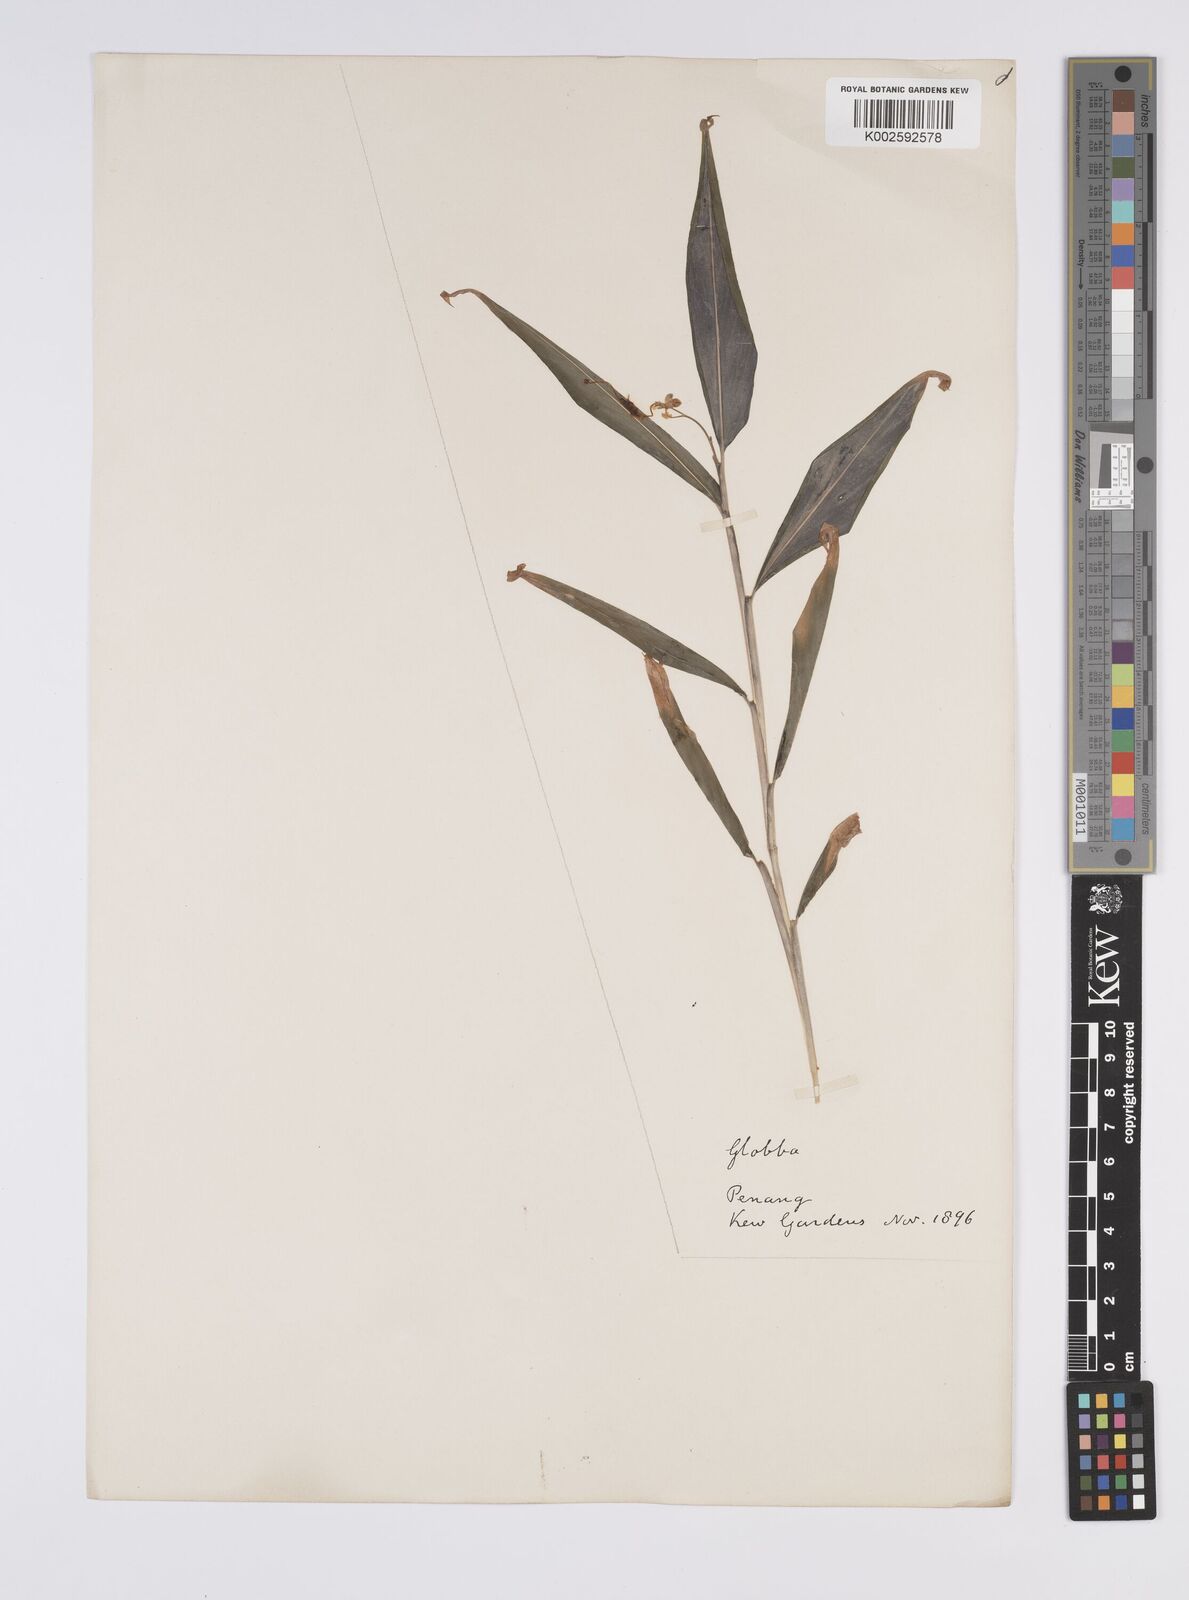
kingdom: Plantae
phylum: Tracheophyta
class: Liliopsida
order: Zingiberales
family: Zingiberaceae
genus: Globba
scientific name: Globba
